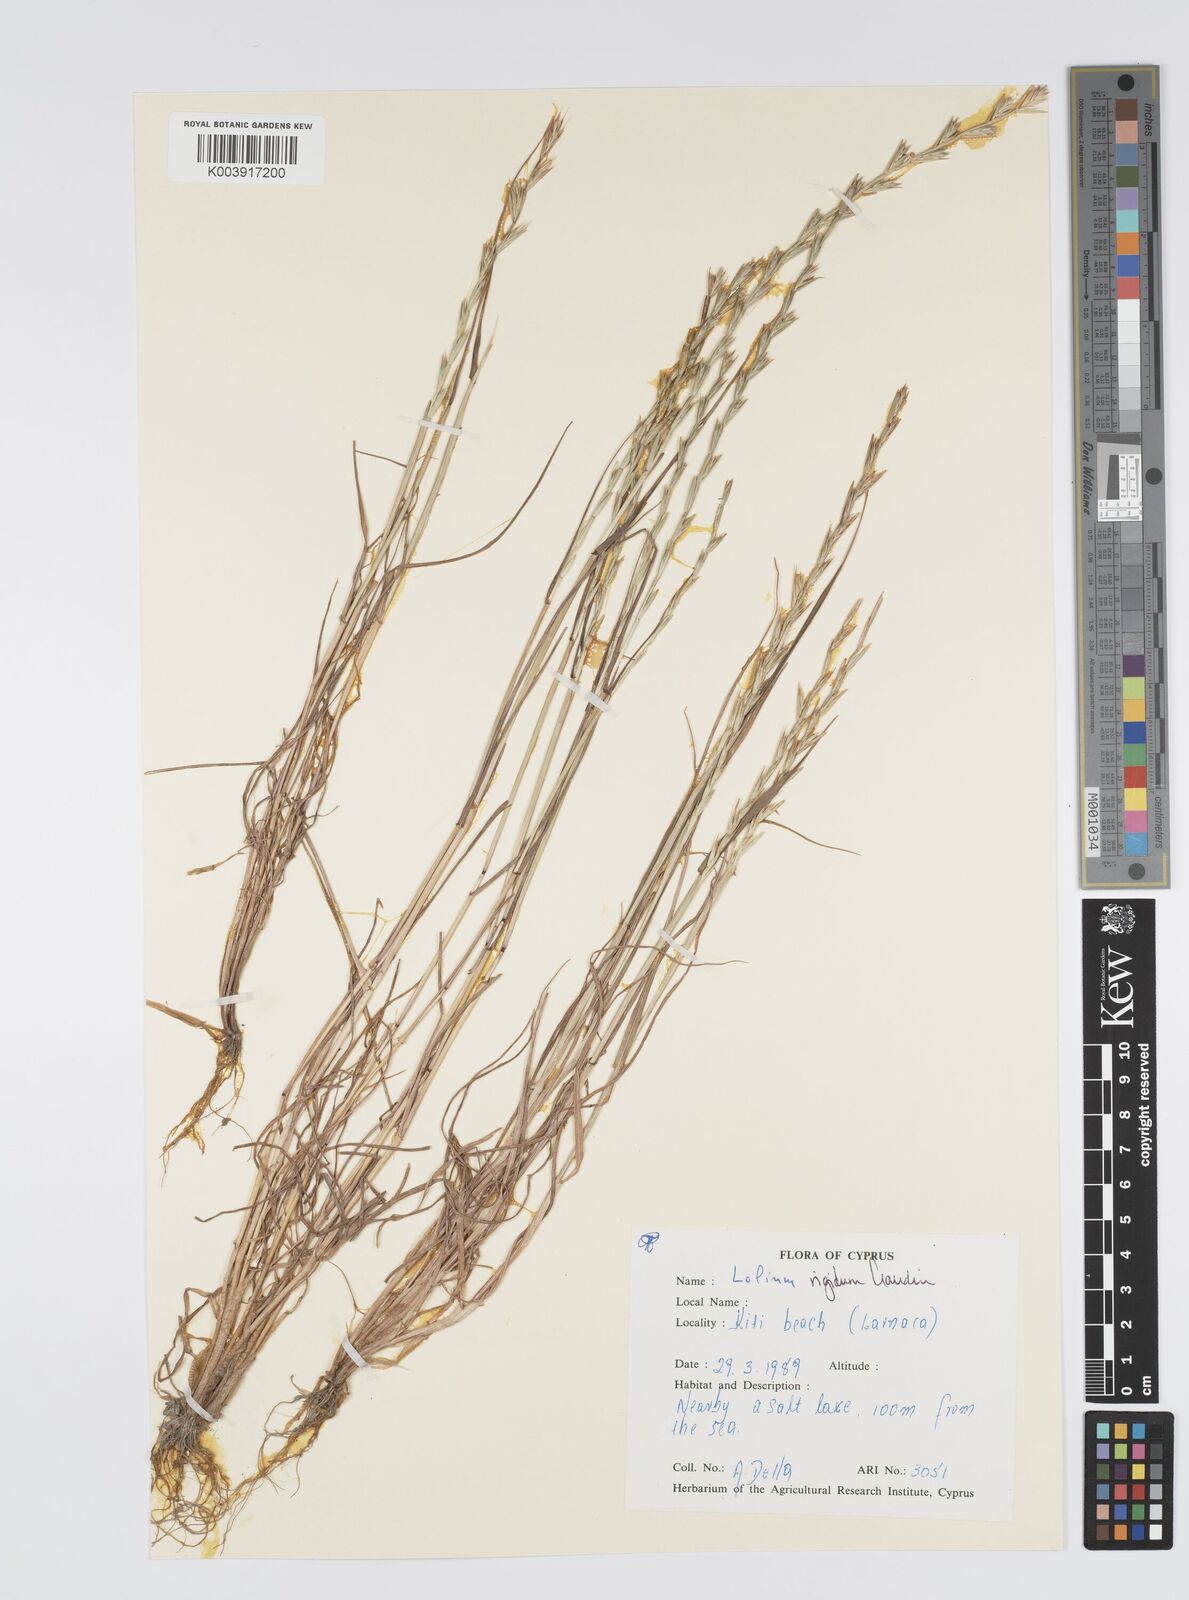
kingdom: Plantae
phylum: Tracheophyta
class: Liliopsida
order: Poales
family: Poaceae
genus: Lolium
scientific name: Lolium rigidum
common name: Wimmera ryegrass
